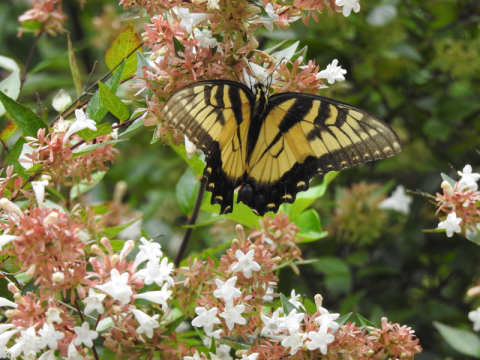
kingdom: Animalia
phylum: Arthropoda
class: Insecta
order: Lepidoptera
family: Papilionidae
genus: Pterourus
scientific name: Pterourus glaucus
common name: Eastern Tiger Swallowtail
